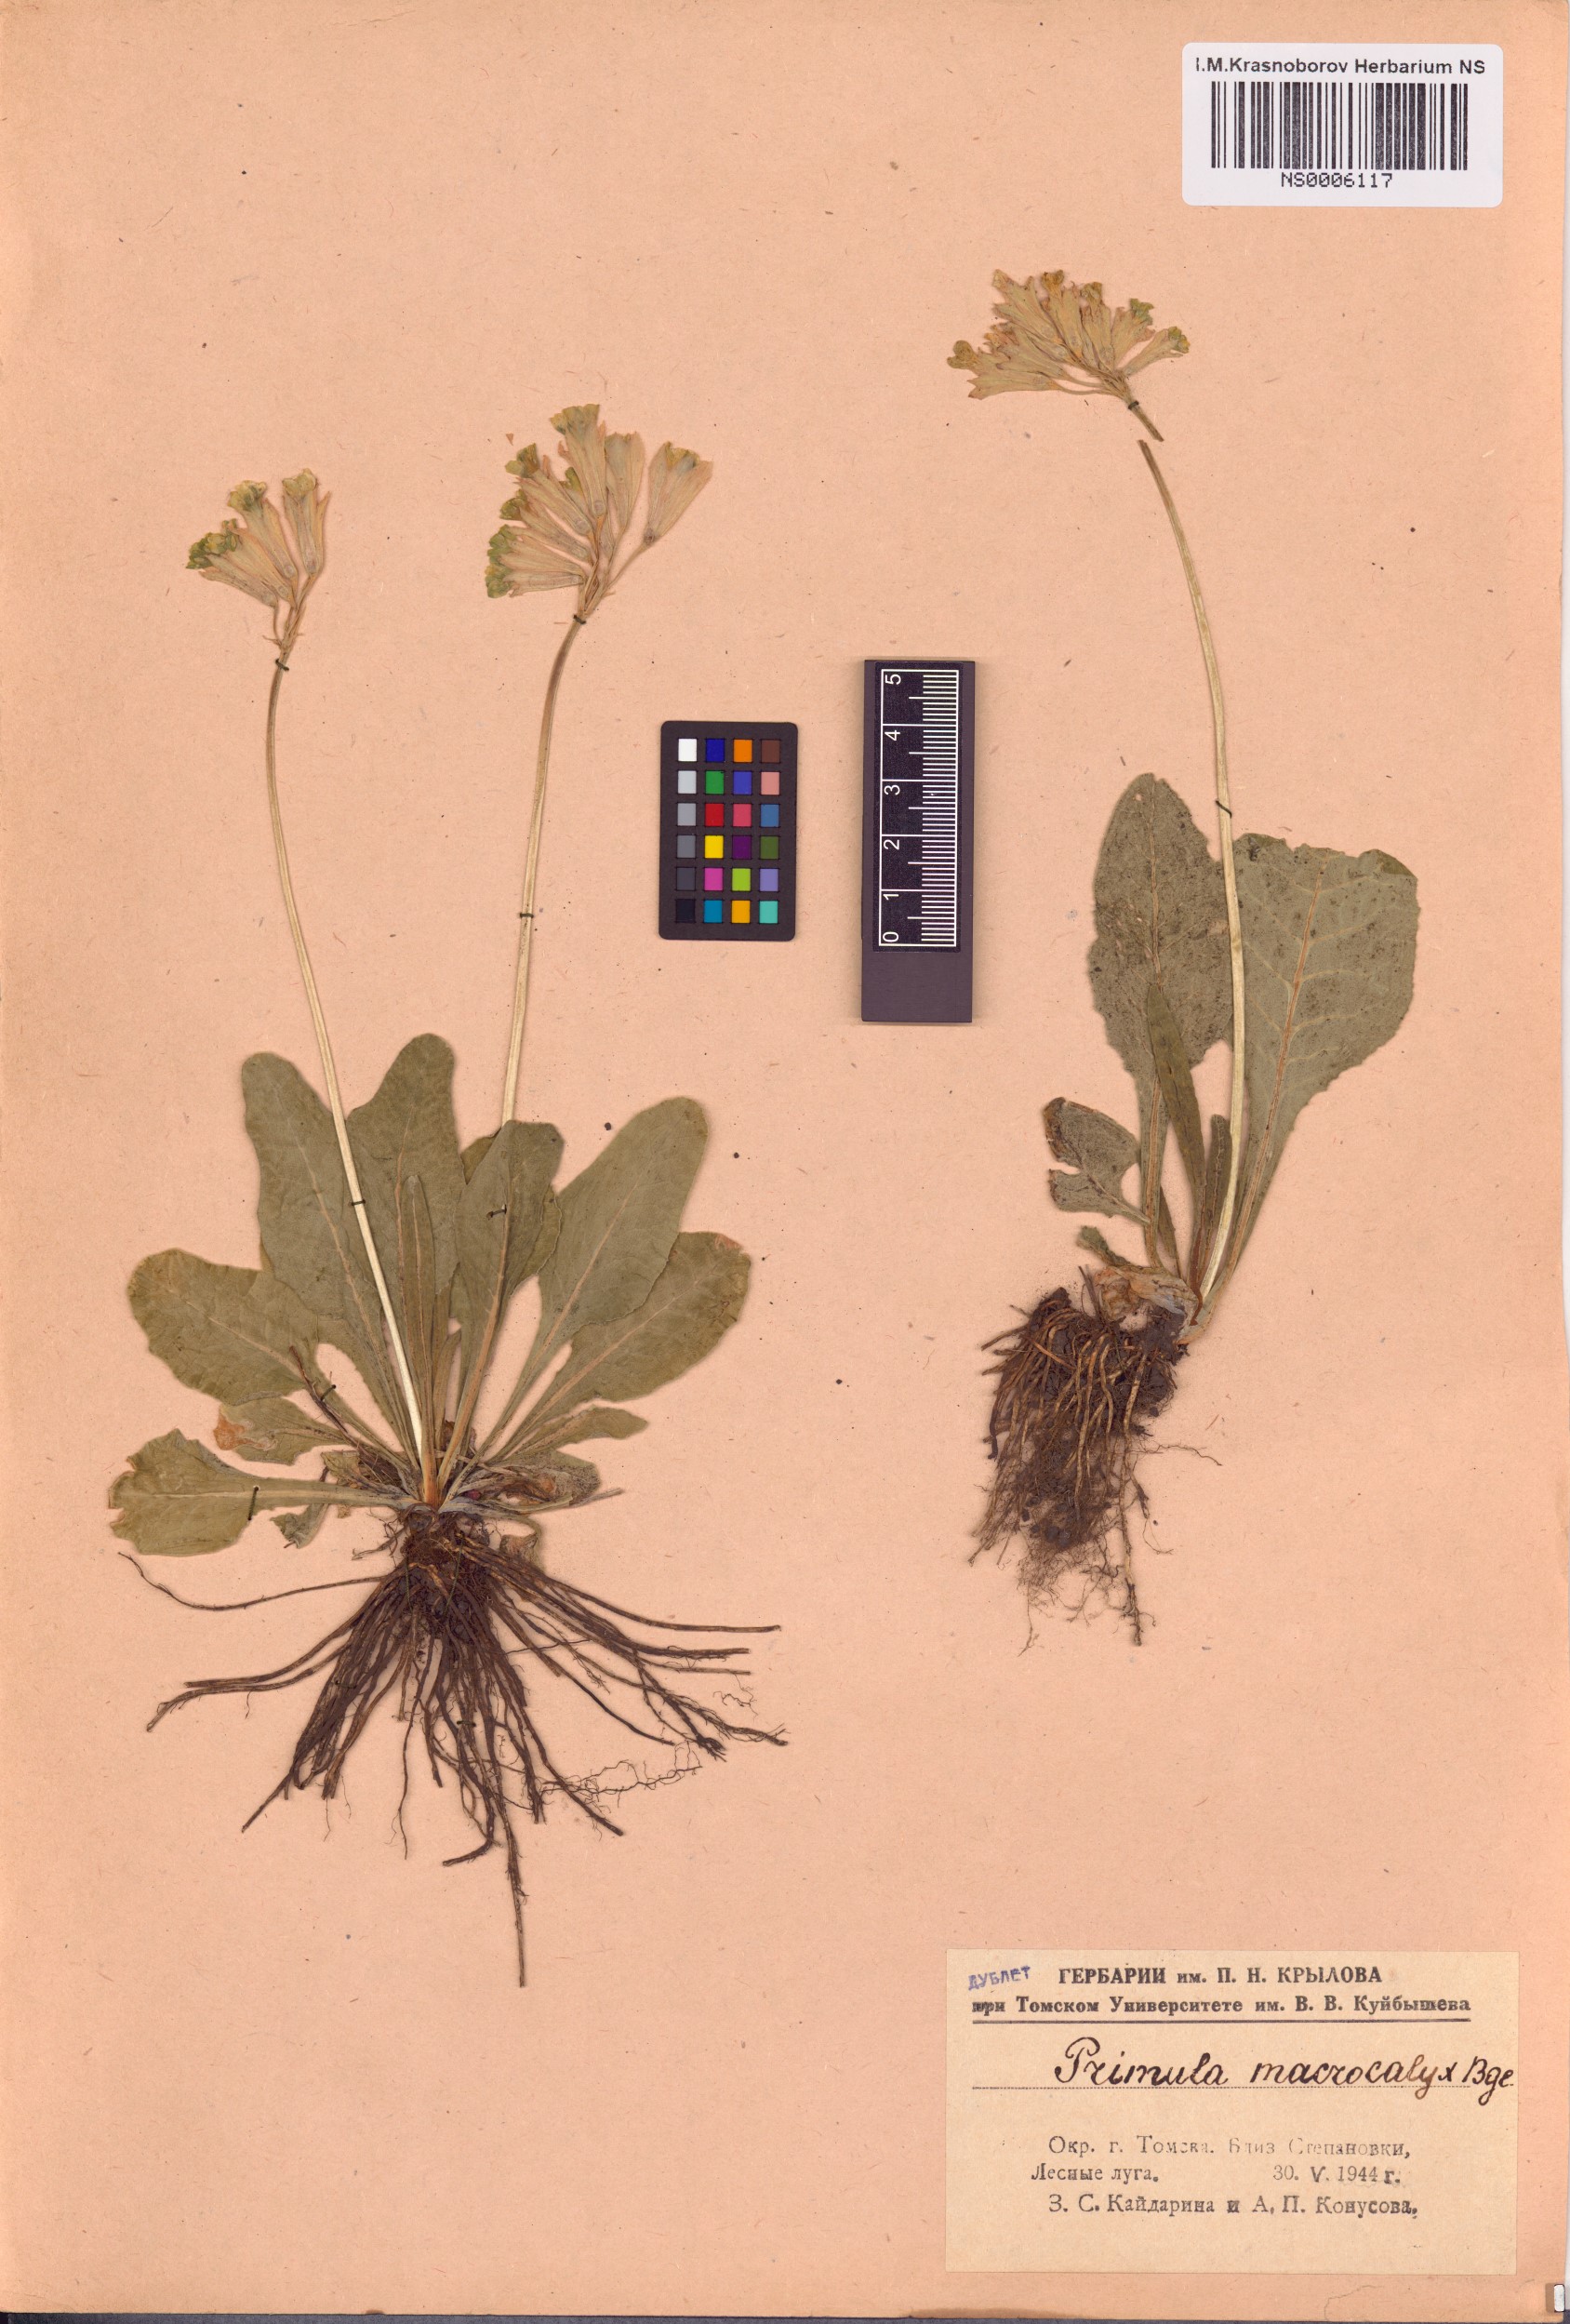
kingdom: Plantae
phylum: Tracheophyta
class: Magnoliopsida
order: Ericales
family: Primulaceae
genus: Primula
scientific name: Primula veris
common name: Cowslip
